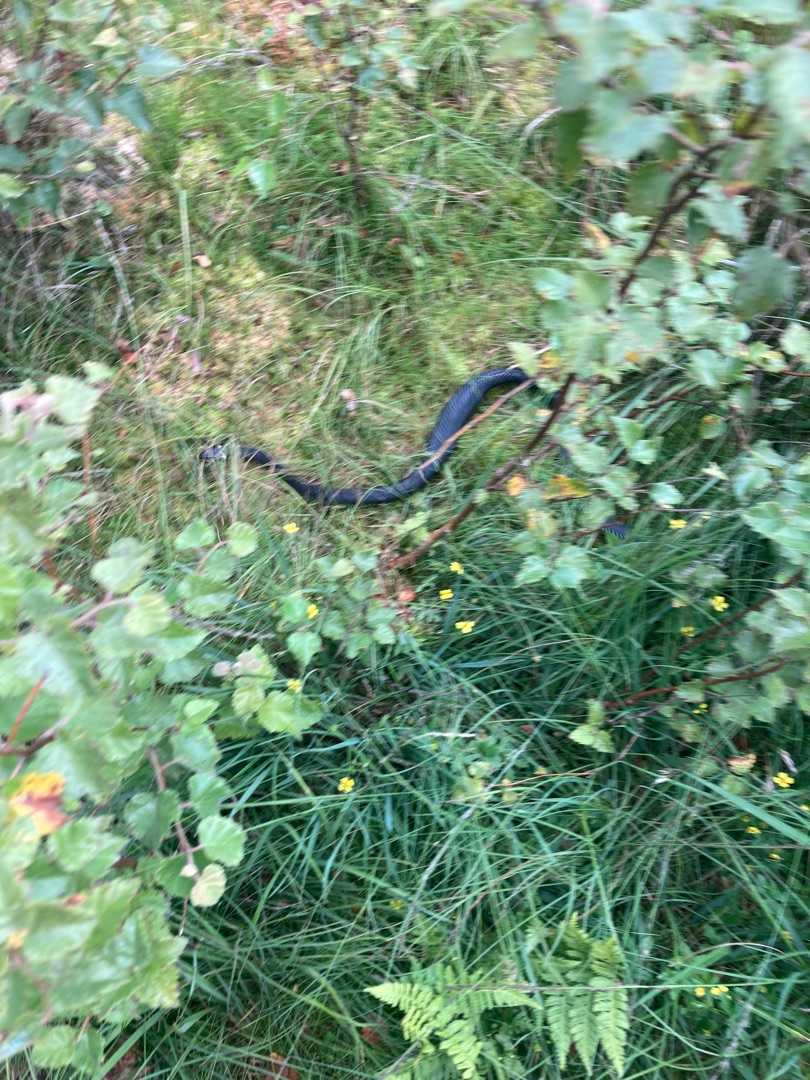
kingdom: Animalia
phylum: Chordata
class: Squamata
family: Colubridae
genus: Natrix
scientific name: Natrix natrix
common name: Snog
